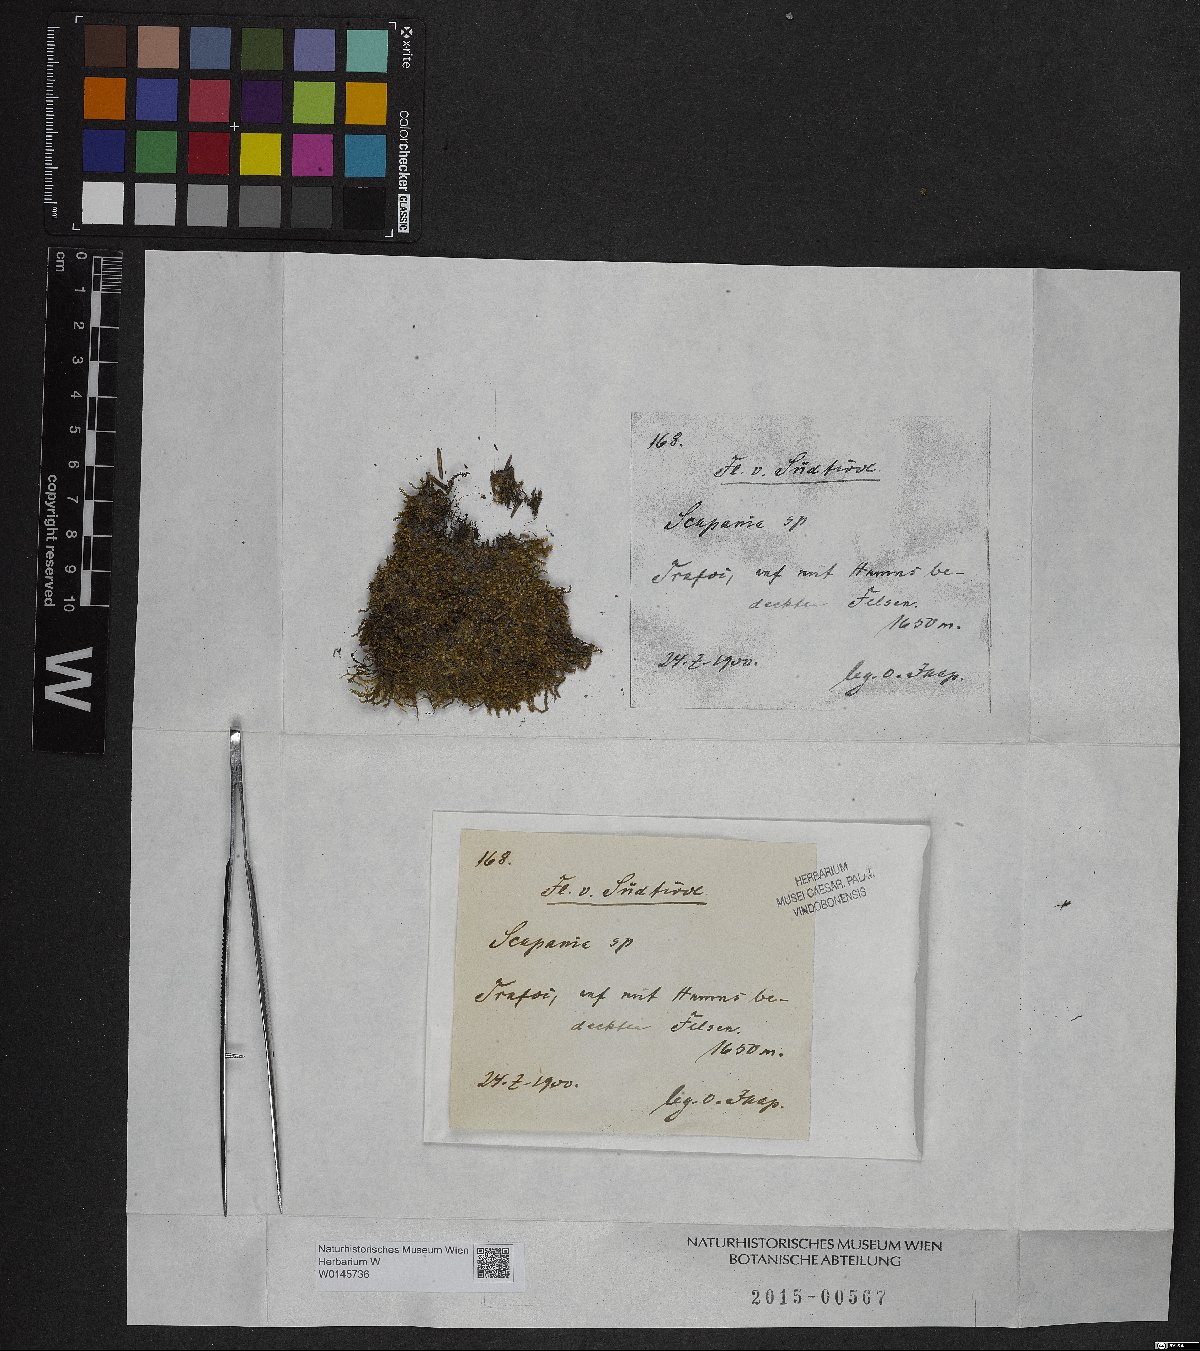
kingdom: Plantae
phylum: Marchantiophyta
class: Jungermanniopsida
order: Jungermanniales
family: Scapaniaceae
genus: Scapania
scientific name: Scapania
